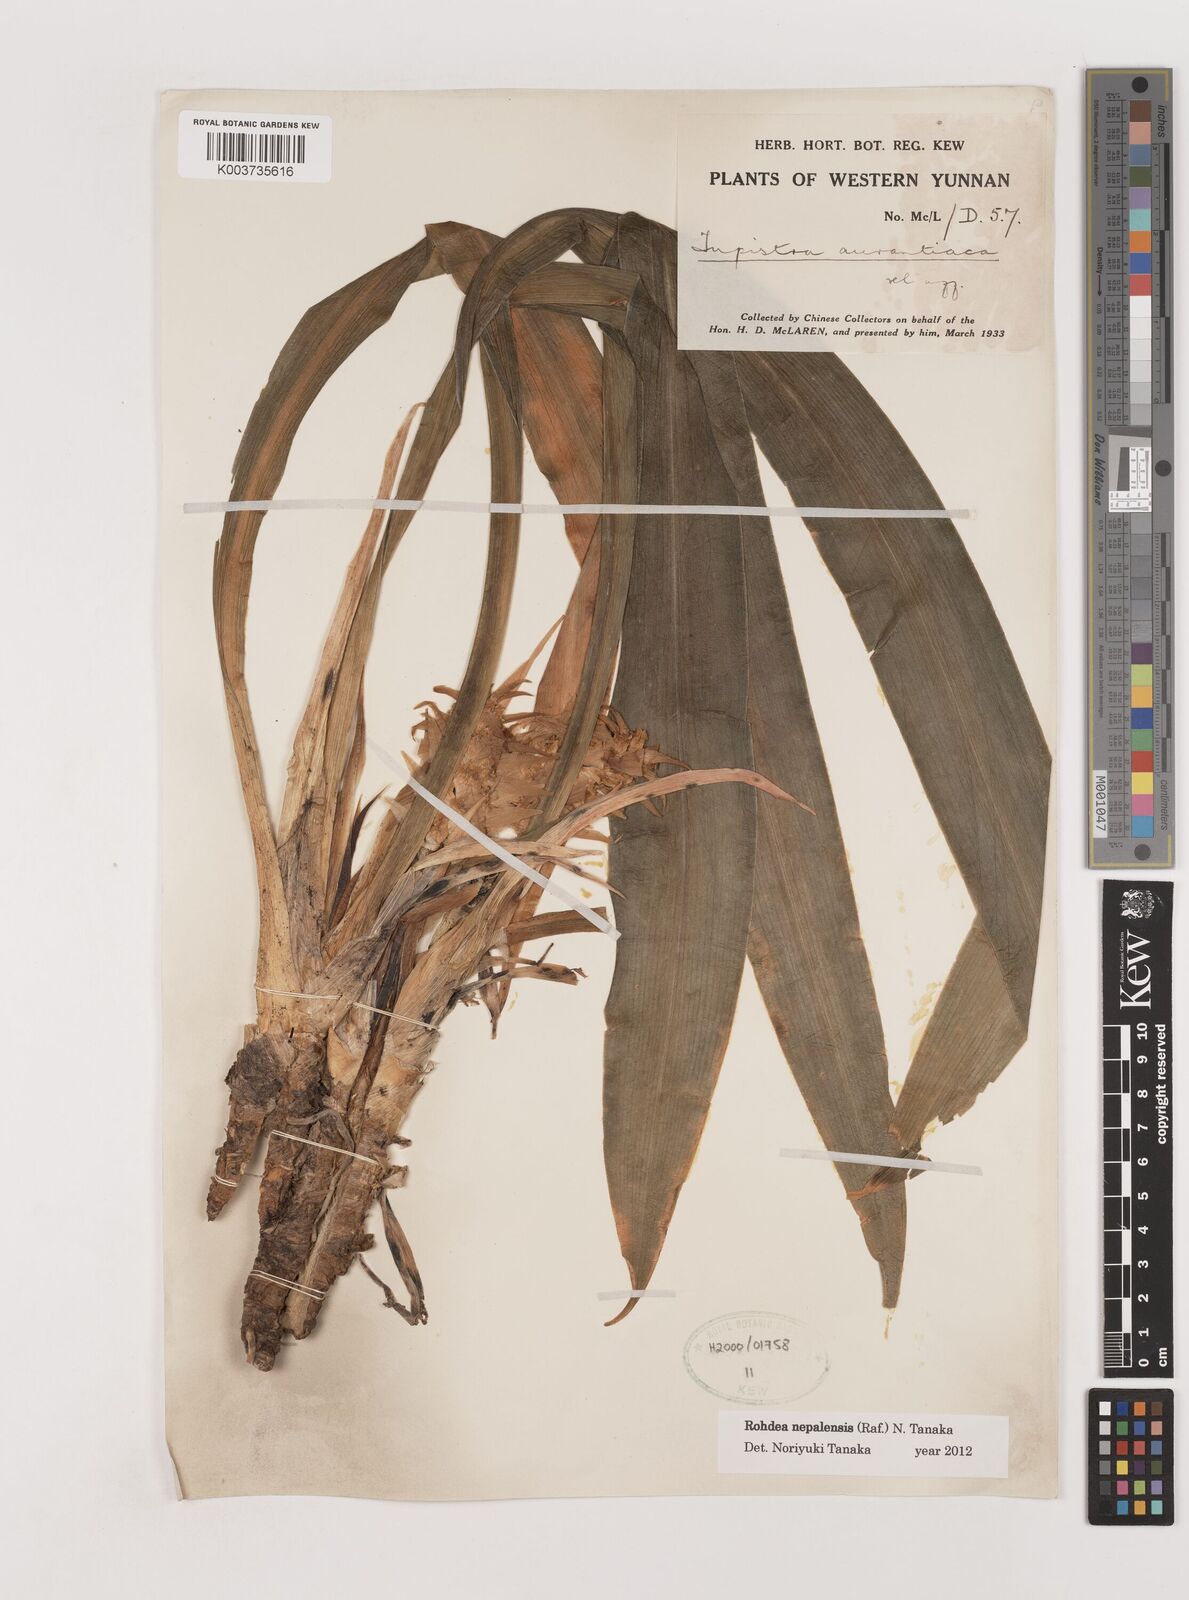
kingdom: Plantae
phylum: Tracheophyta
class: Liliopsida
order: Asparagales
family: Asparagaceae
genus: Rohdea
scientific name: Rohdea nepalensis
